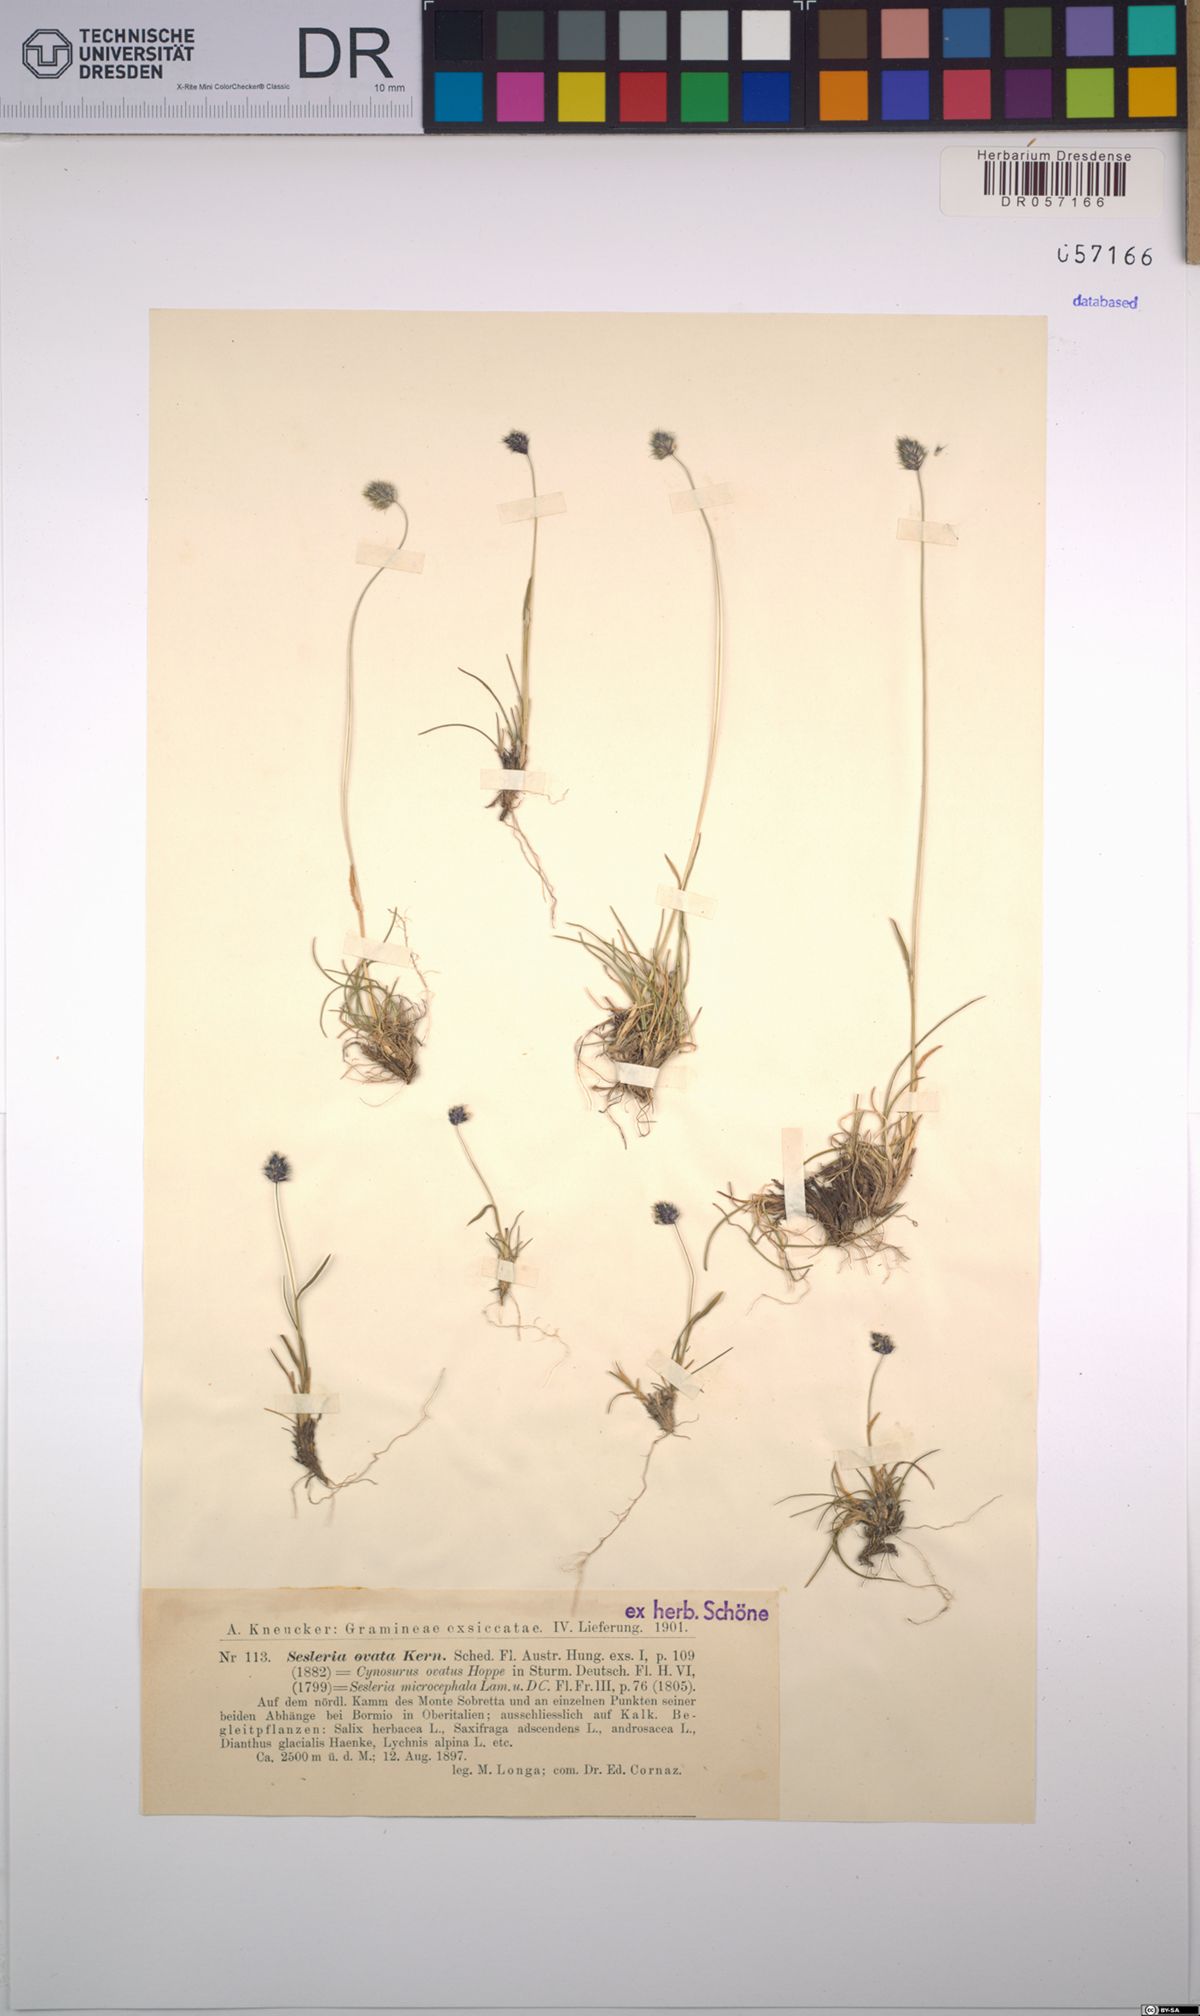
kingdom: Plantae
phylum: Tracheophyta
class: Liliopsida
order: Poales
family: Poaceae
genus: Psilathera
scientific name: Psilathera ovata
